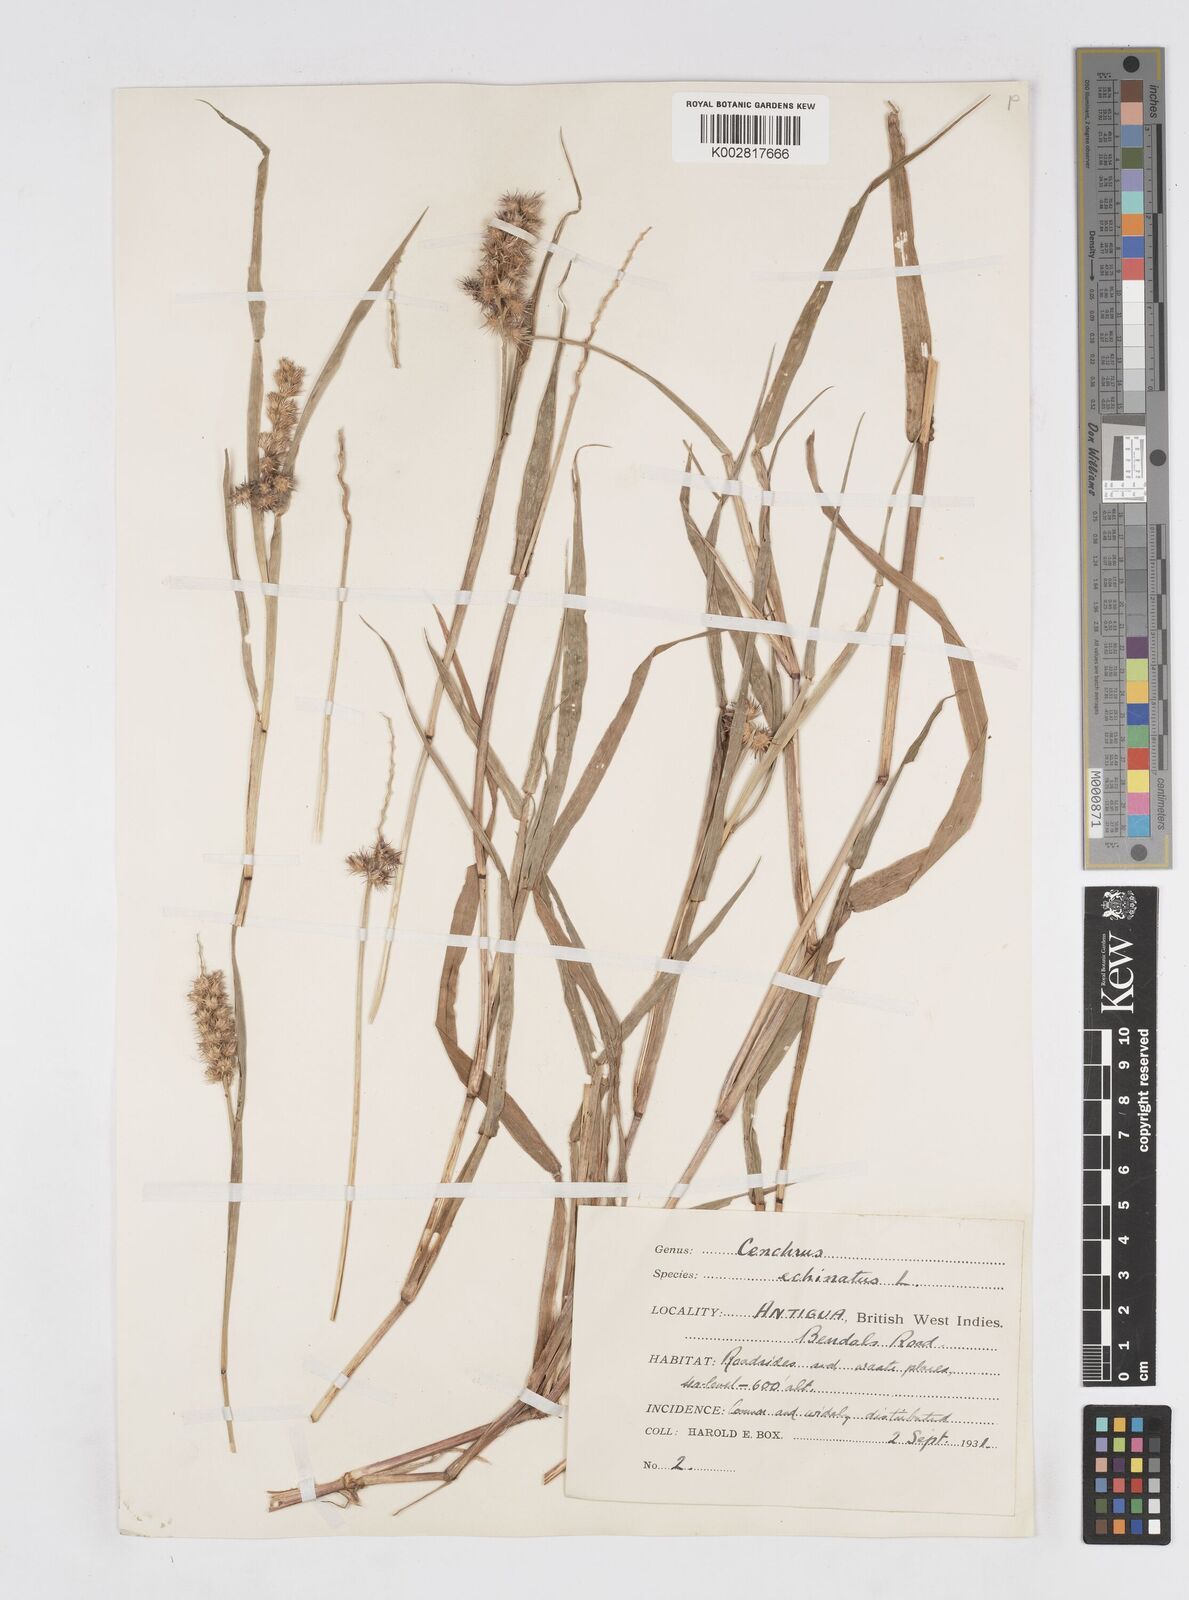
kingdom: Plantae
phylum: Tracheophyta
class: Liliopsida
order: Poales
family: Poaceae
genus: Cenchrus
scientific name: Cenchrus
